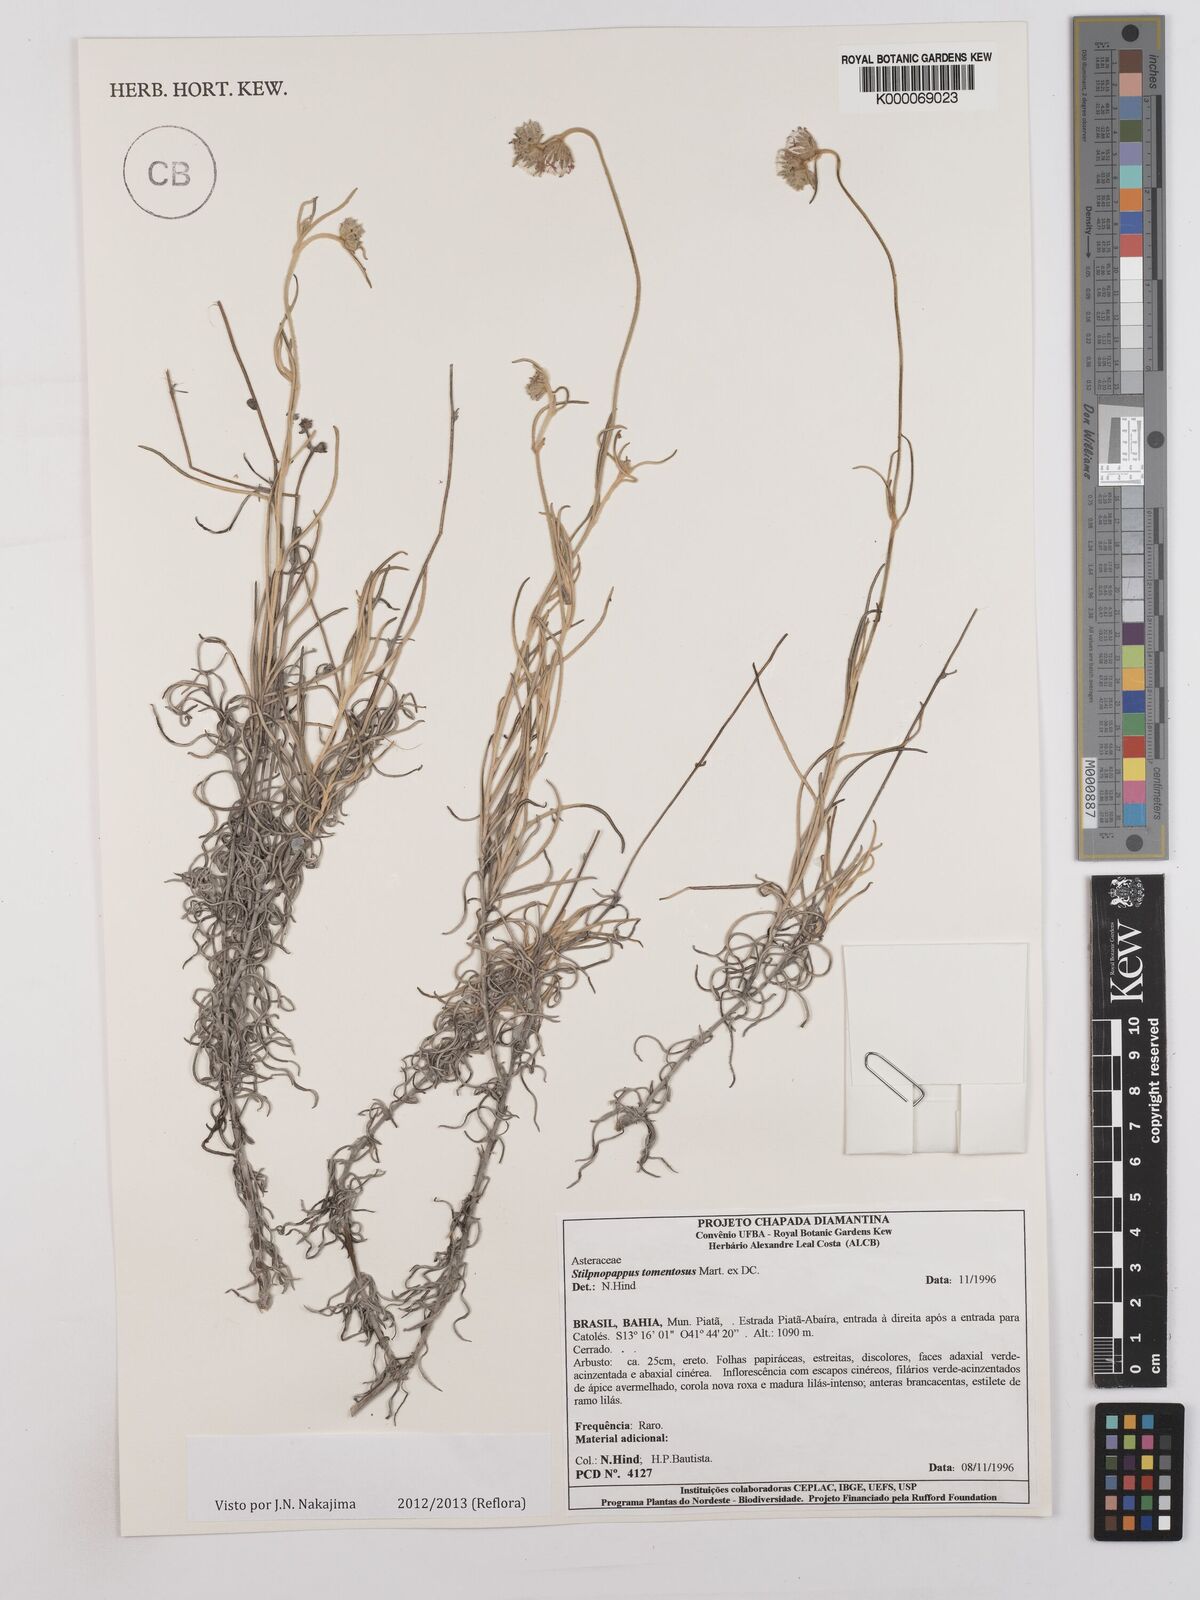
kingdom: Plantae
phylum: Tracheophyta
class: Magnoliopsida
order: Asterales
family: Asteraceae
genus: Stilpnopappus
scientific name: Stilpnopappus tomentosus
